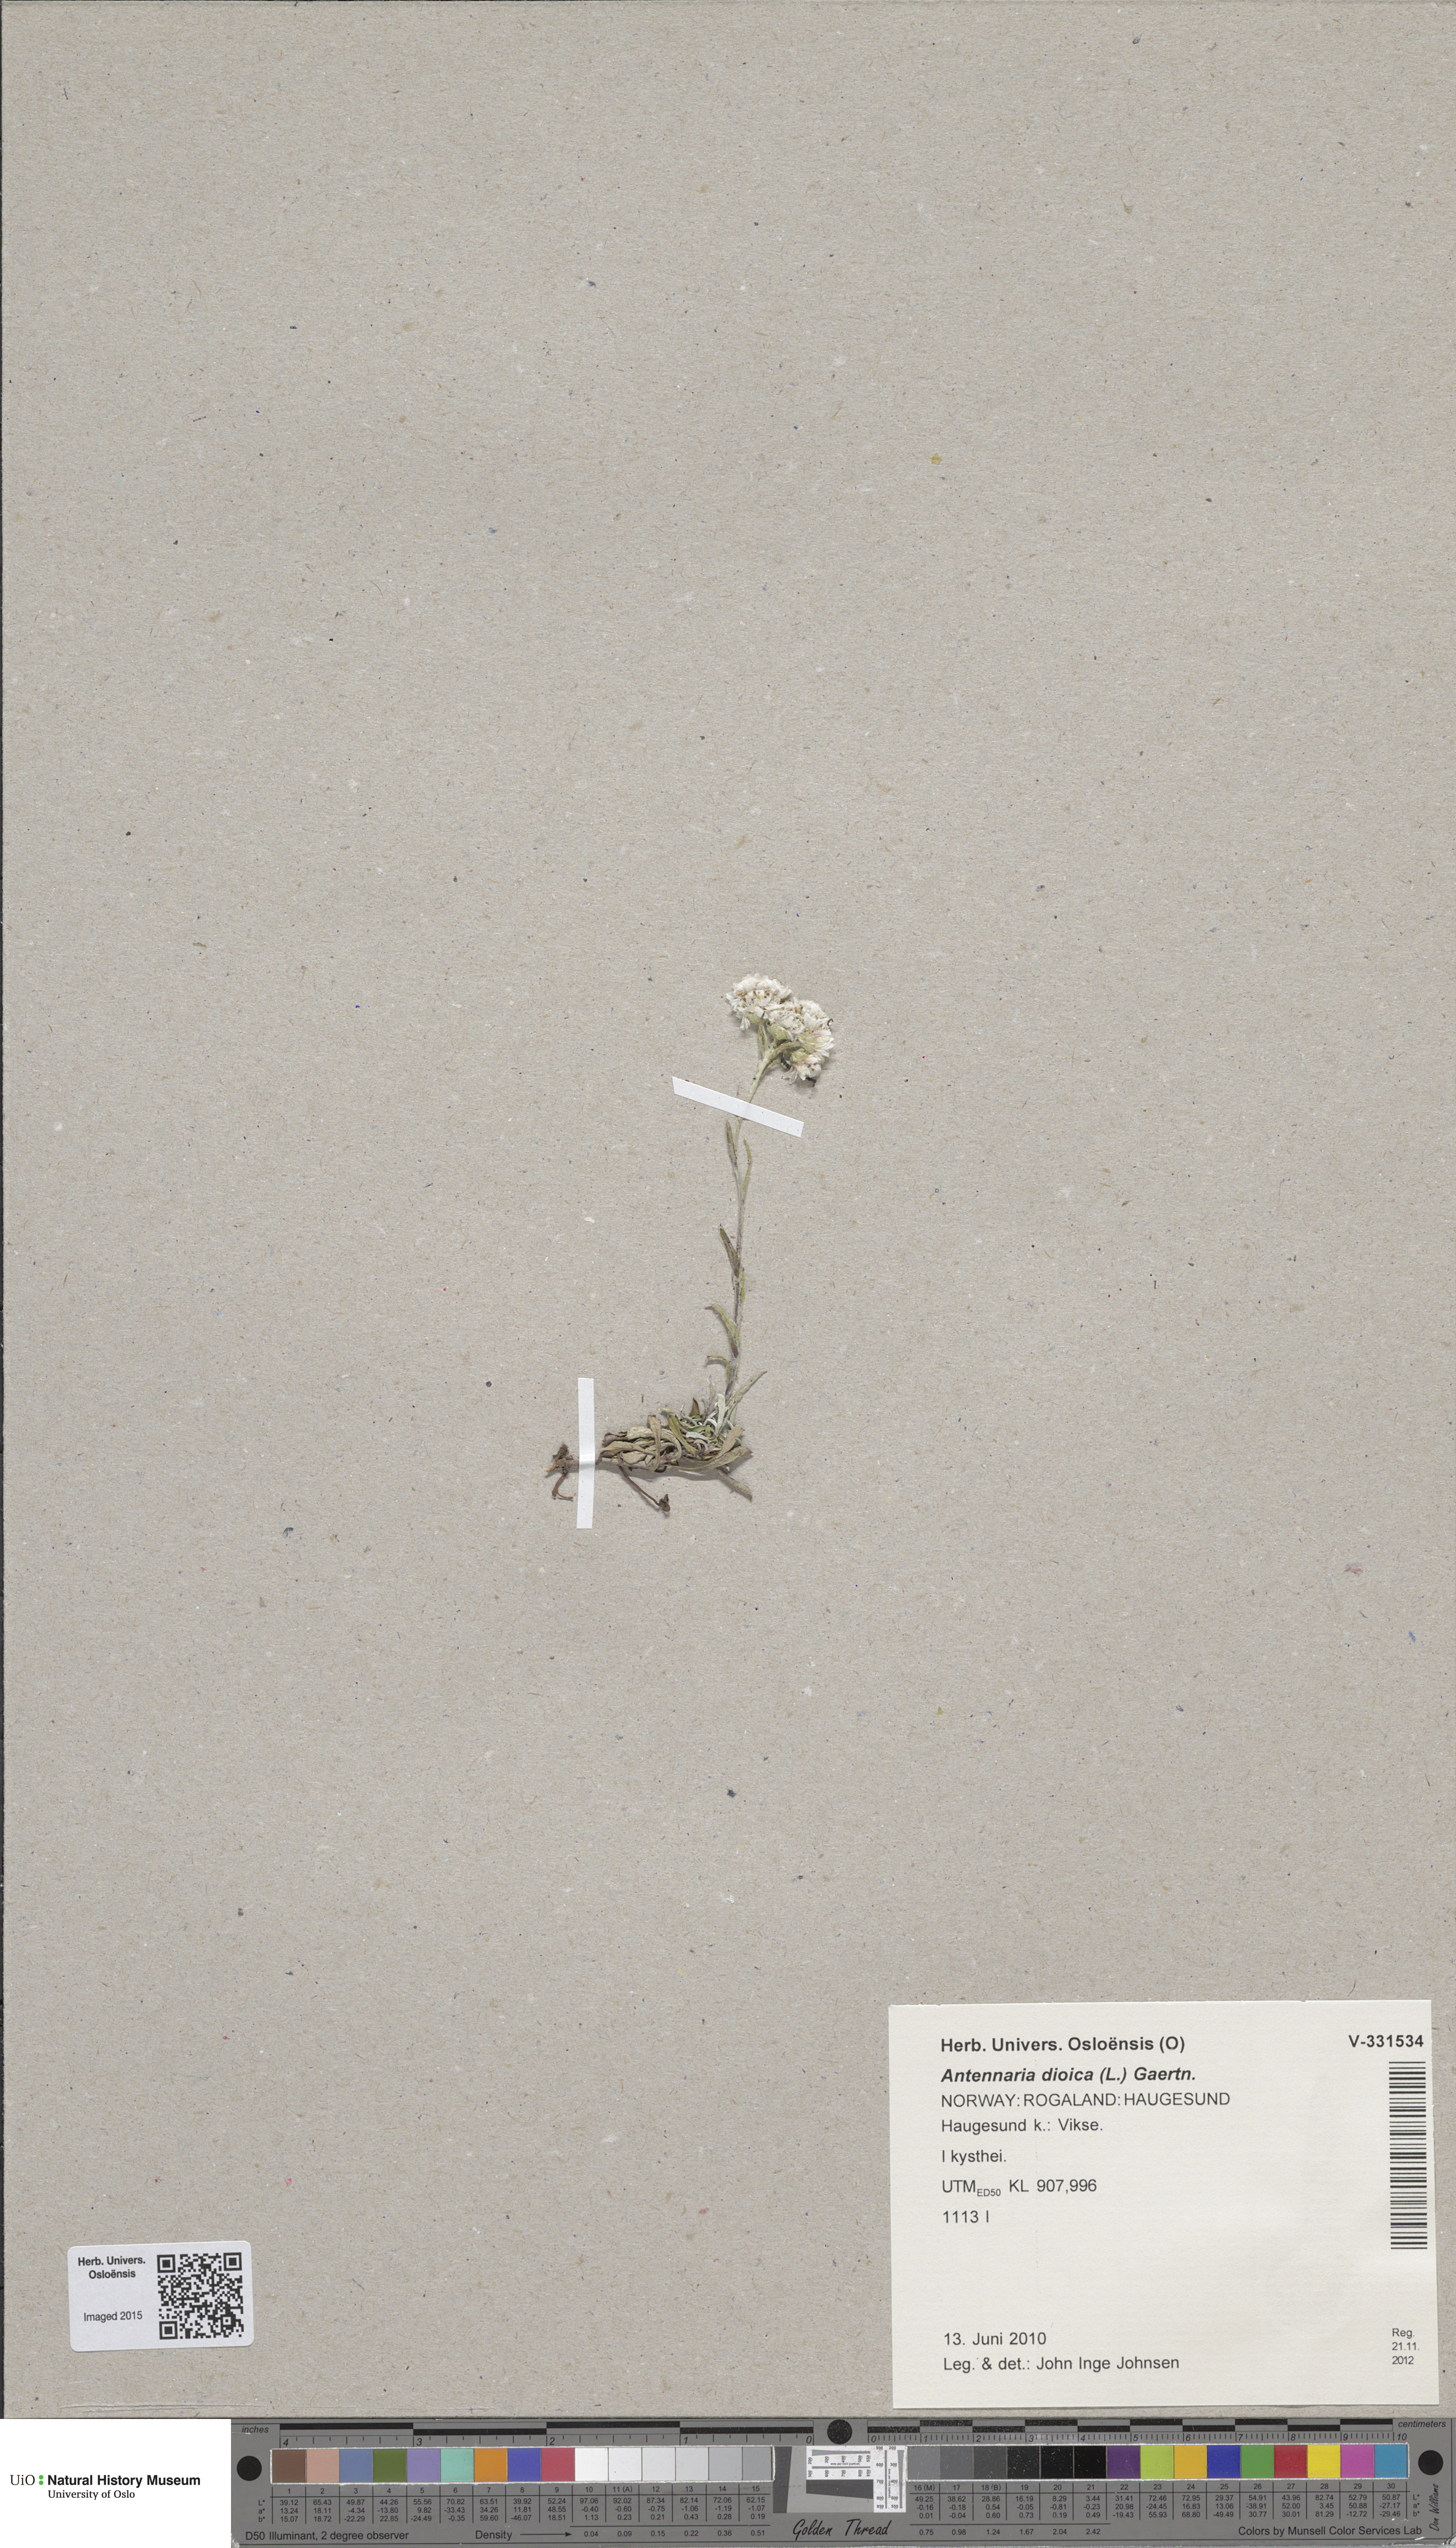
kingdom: Plantae
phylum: Tracheophyta
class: Magnoliopsida
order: Asterales
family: Asteraceae
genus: Antennaria
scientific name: Antennaria dioica
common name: Mountain everlasting
